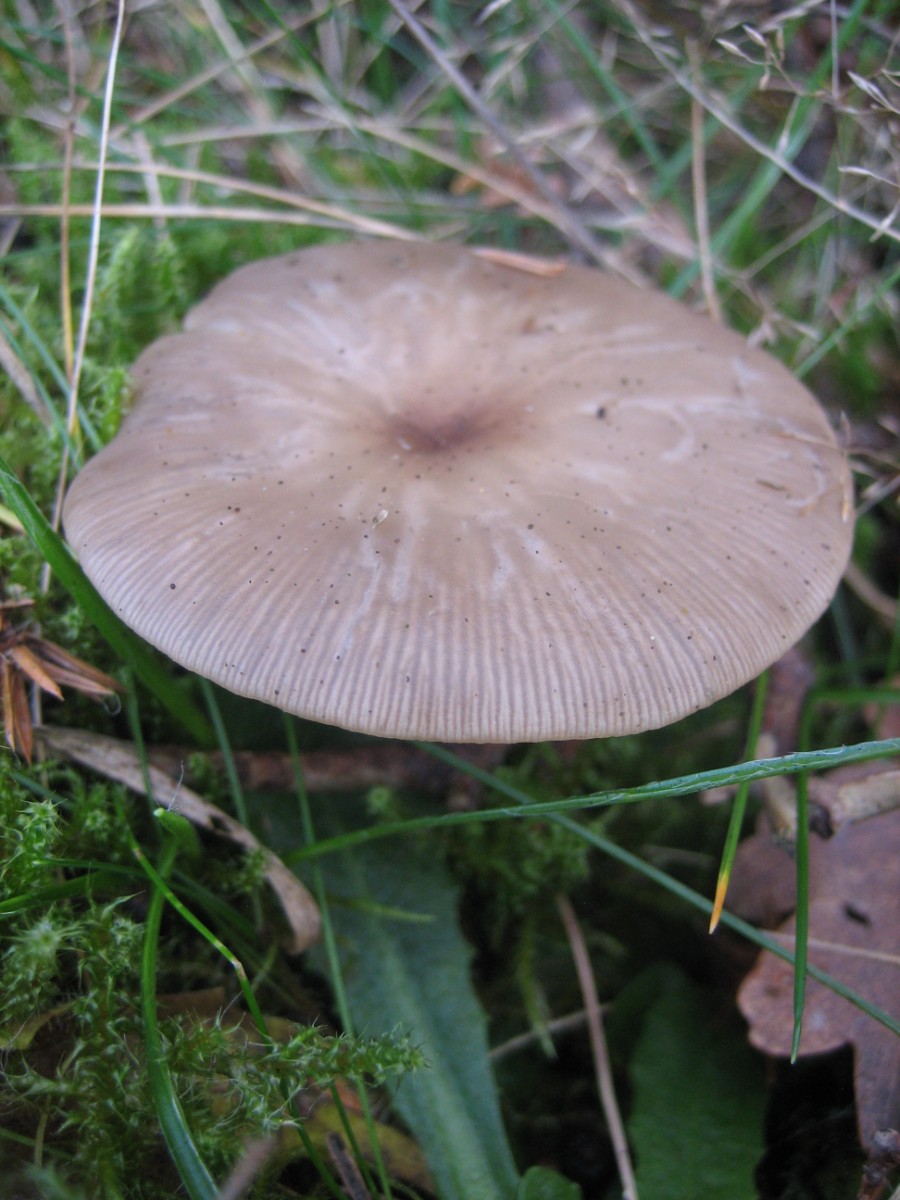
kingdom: Fungi
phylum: Basidiomycota
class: Agaricomycetes
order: Agaricales
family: Tricholomataceae
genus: Clitocybe
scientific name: Clitocybe
